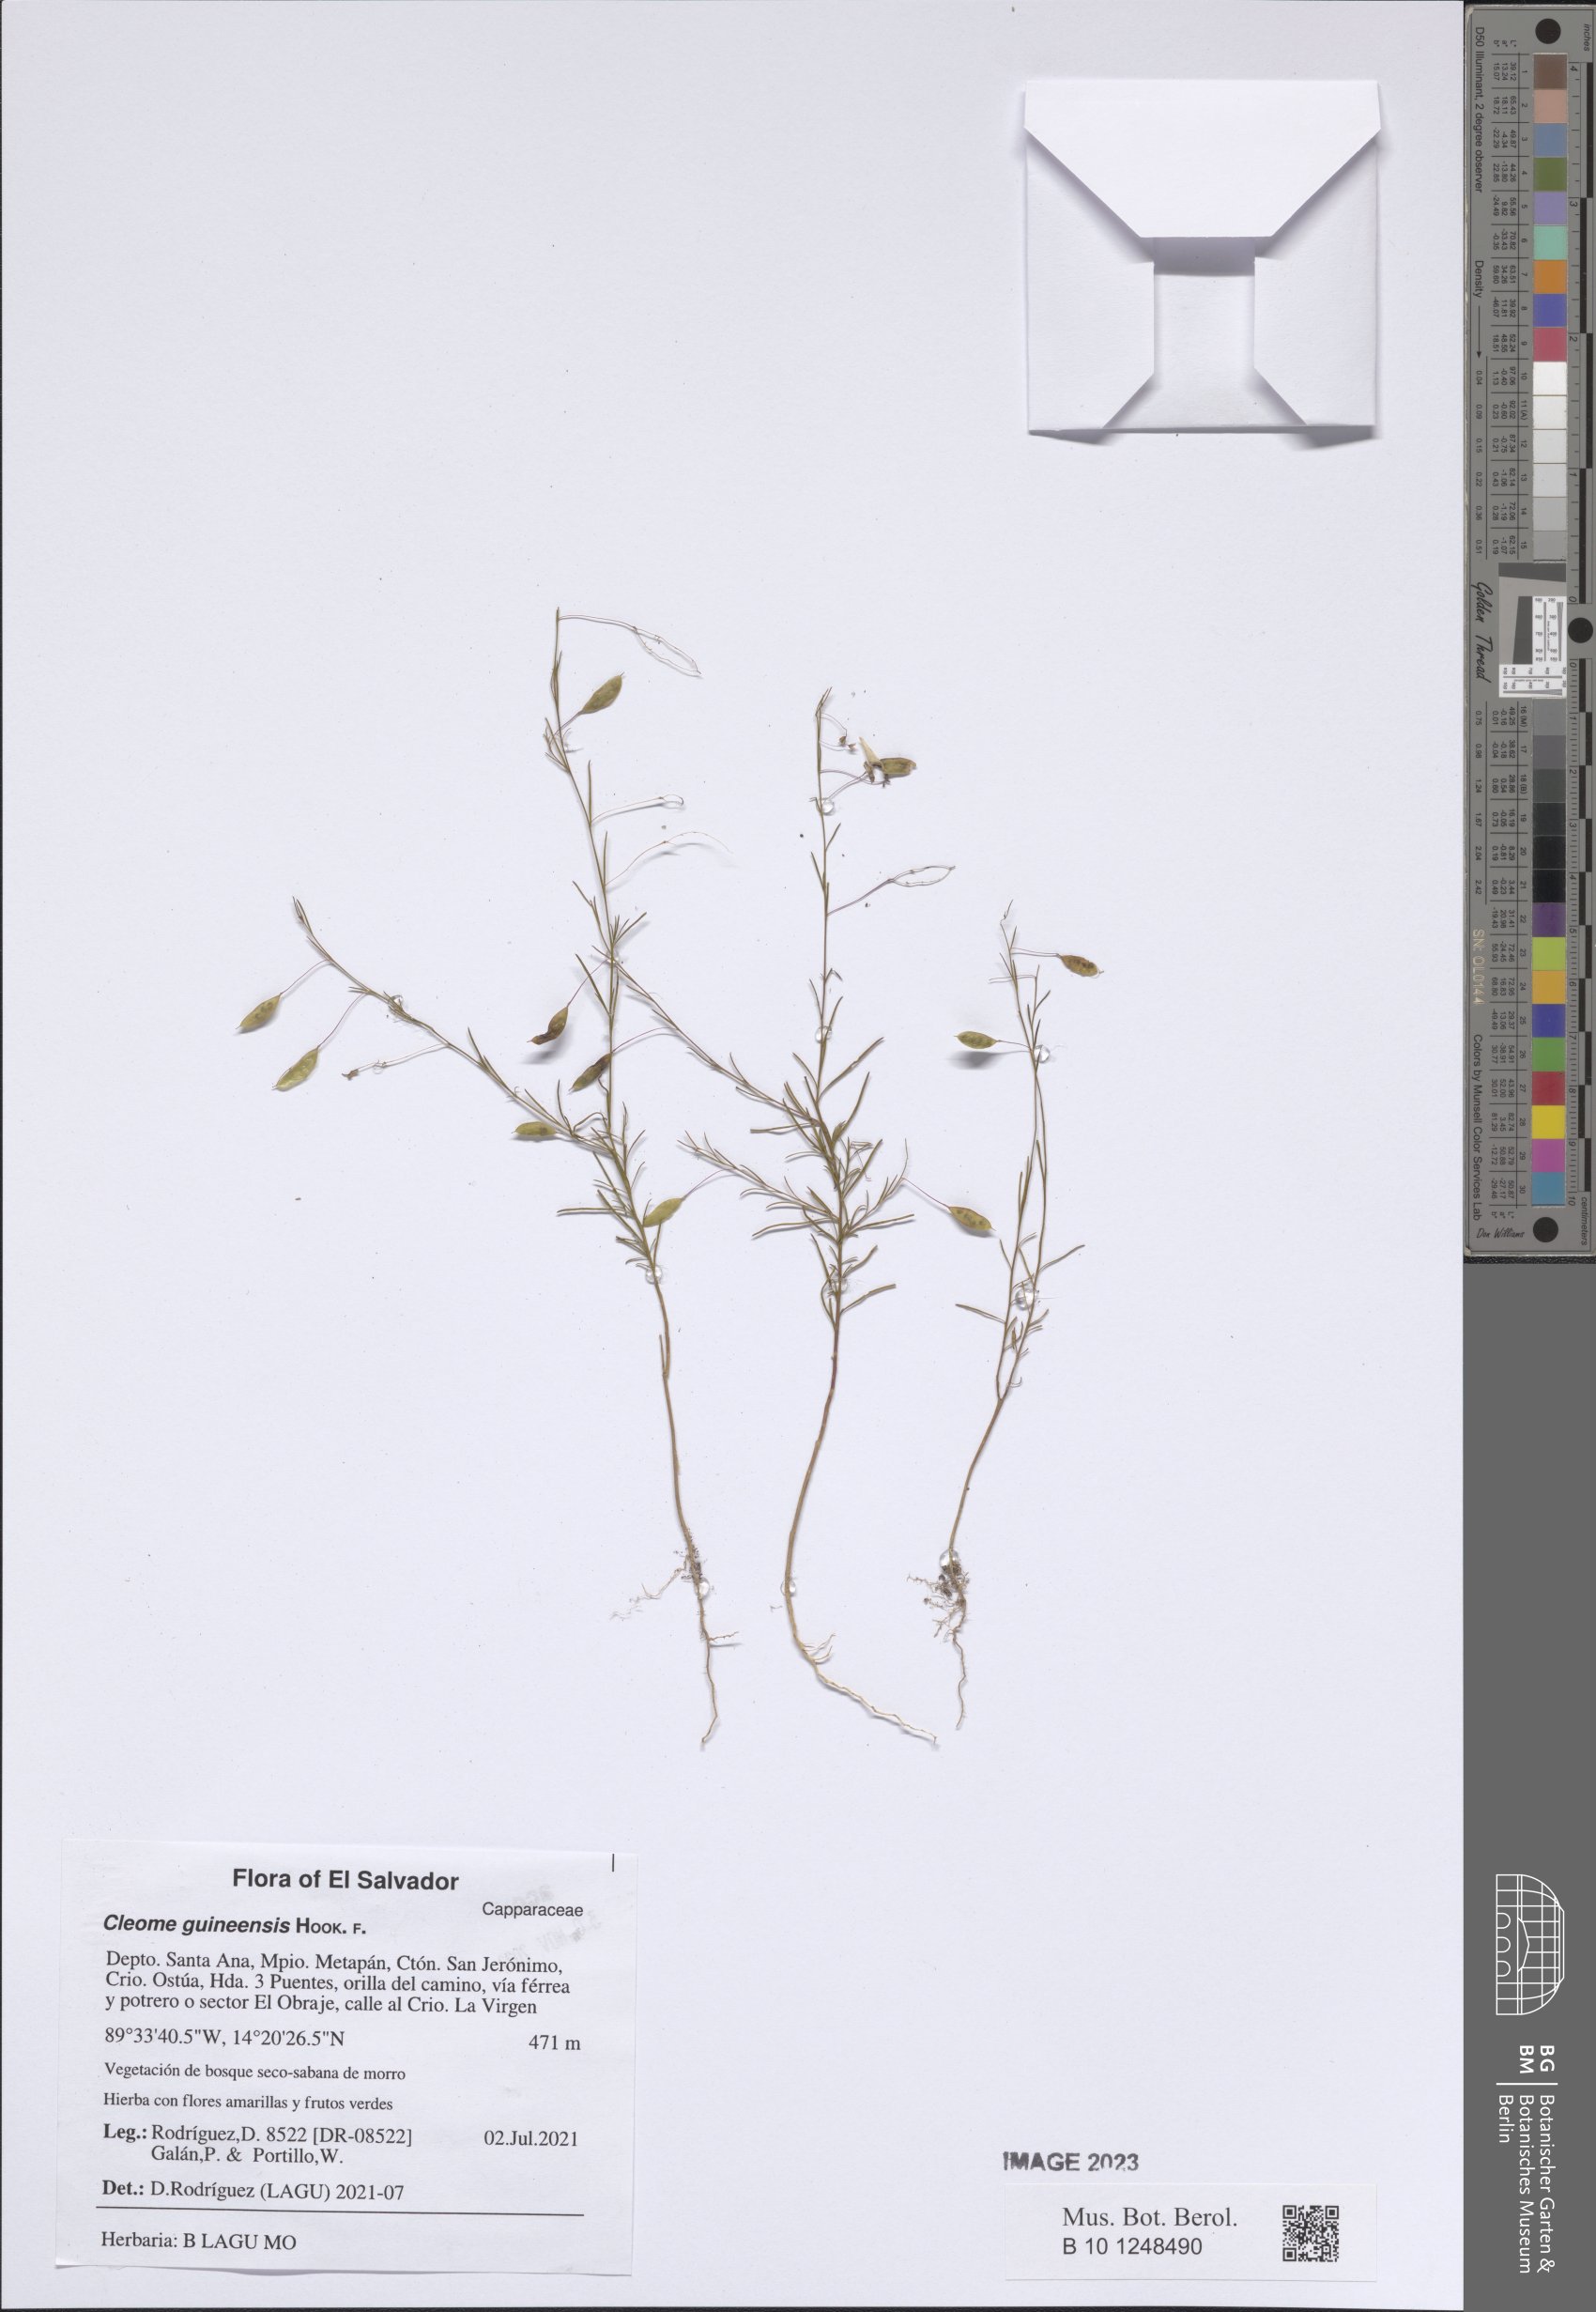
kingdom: Plantae
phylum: Tracheophyta
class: Magnoliopsida
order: Brassicales
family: Cleomaceae
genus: Physostemon
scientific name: Physostemon guianensis
